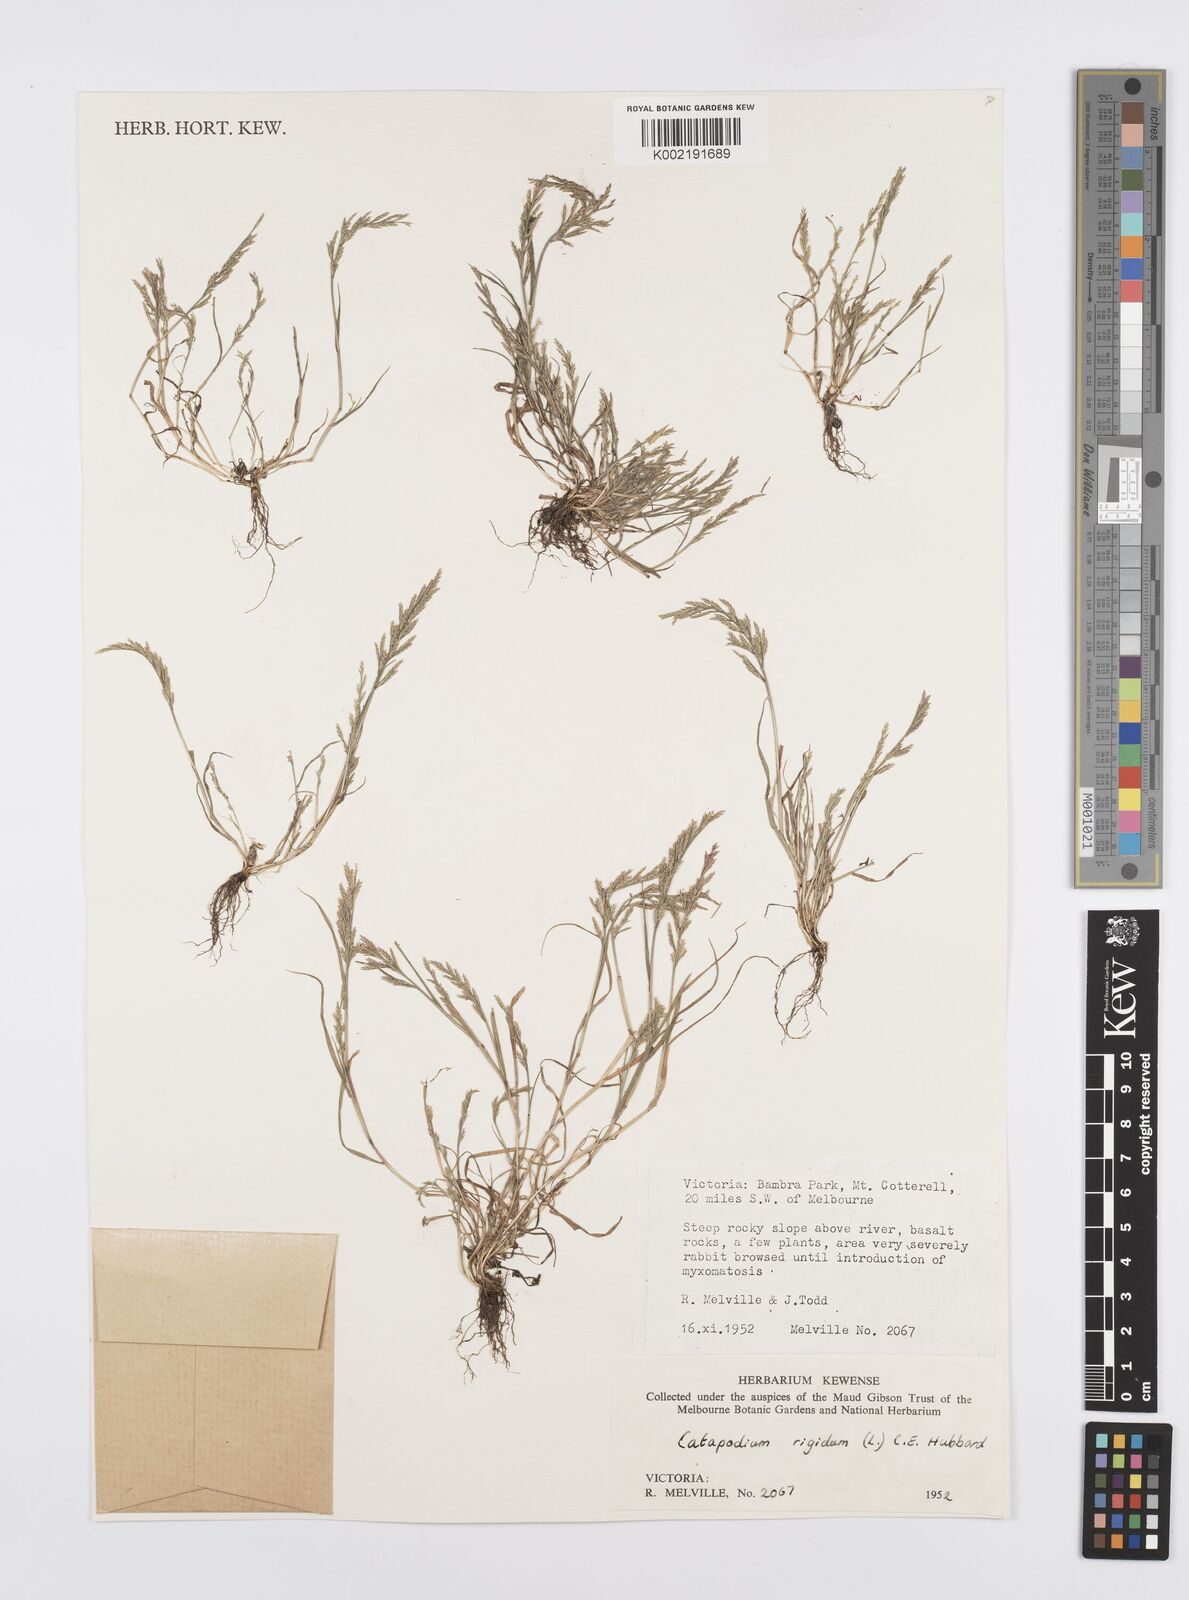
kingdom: Plantae
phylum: Tracheophyta
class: Liliopsida
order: Poales
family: Poaceae
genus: Catapodium
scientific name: Catapodium rigidum
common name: Fern-grass
